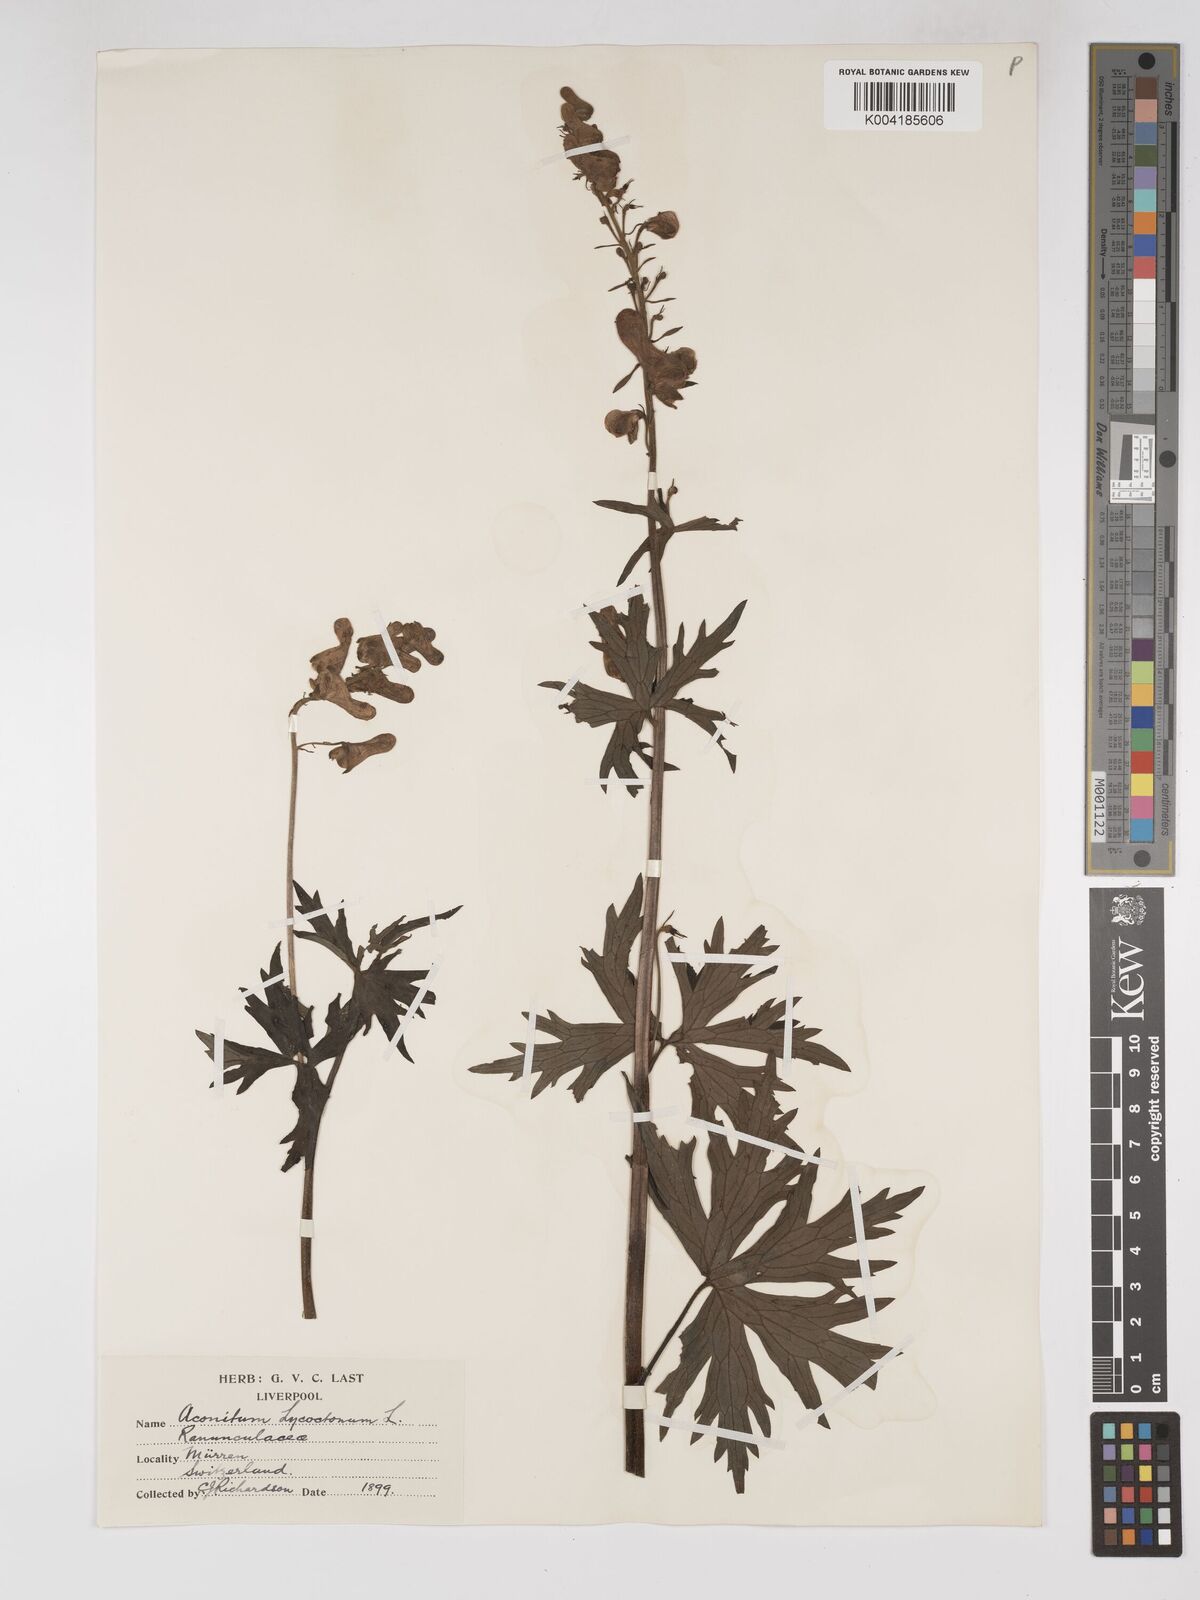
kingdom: Plantae
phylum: Tracheophyta
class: Magnoliopsida
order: Ranunculales
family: Ranunculaceae
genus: Aconitum
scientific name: Aconitum lycoctonum
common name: Wolf's-bane
